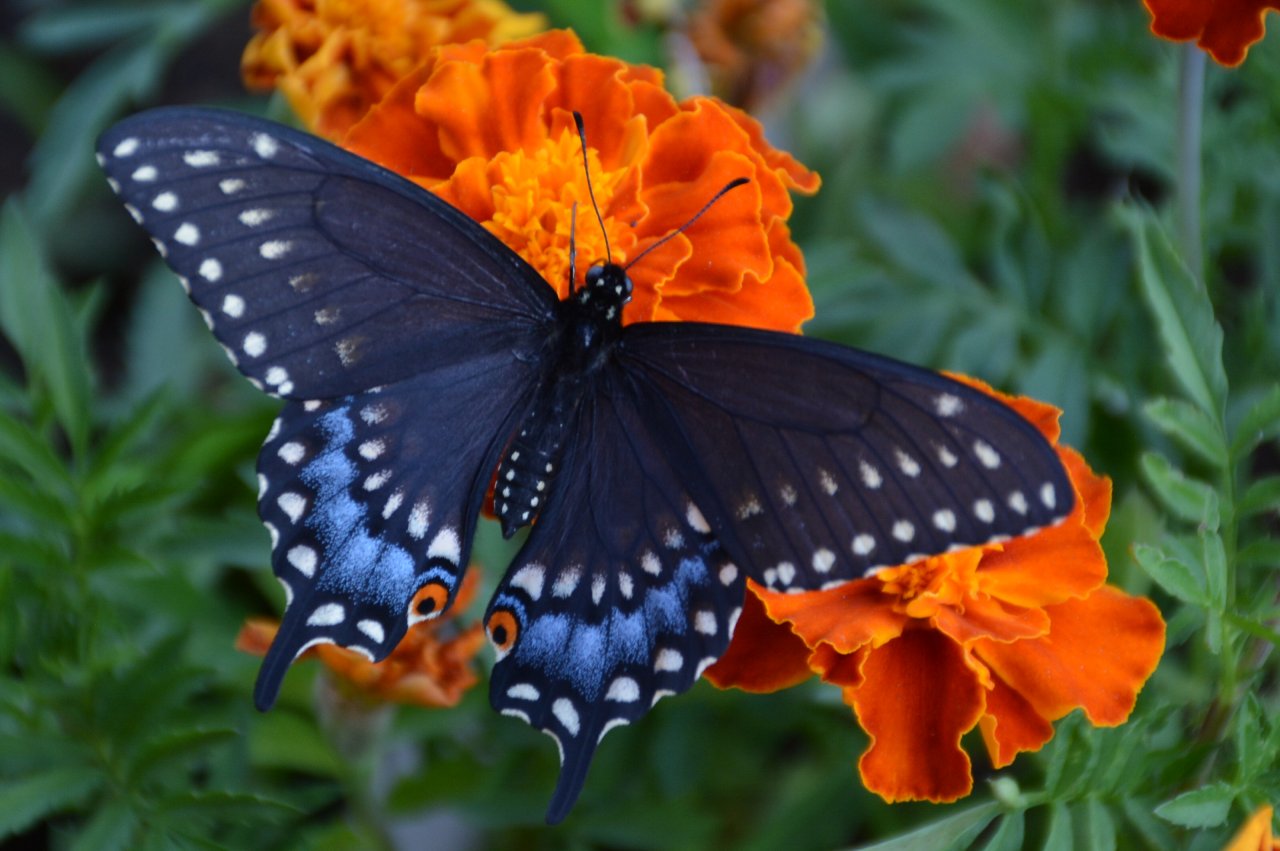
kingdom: Animalia
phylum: Arthropoda
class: Insecta
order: Lepidoptera
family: Papilionidae
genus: Papilio
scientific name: Papilio polyxenes
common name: Black Swallowtail
